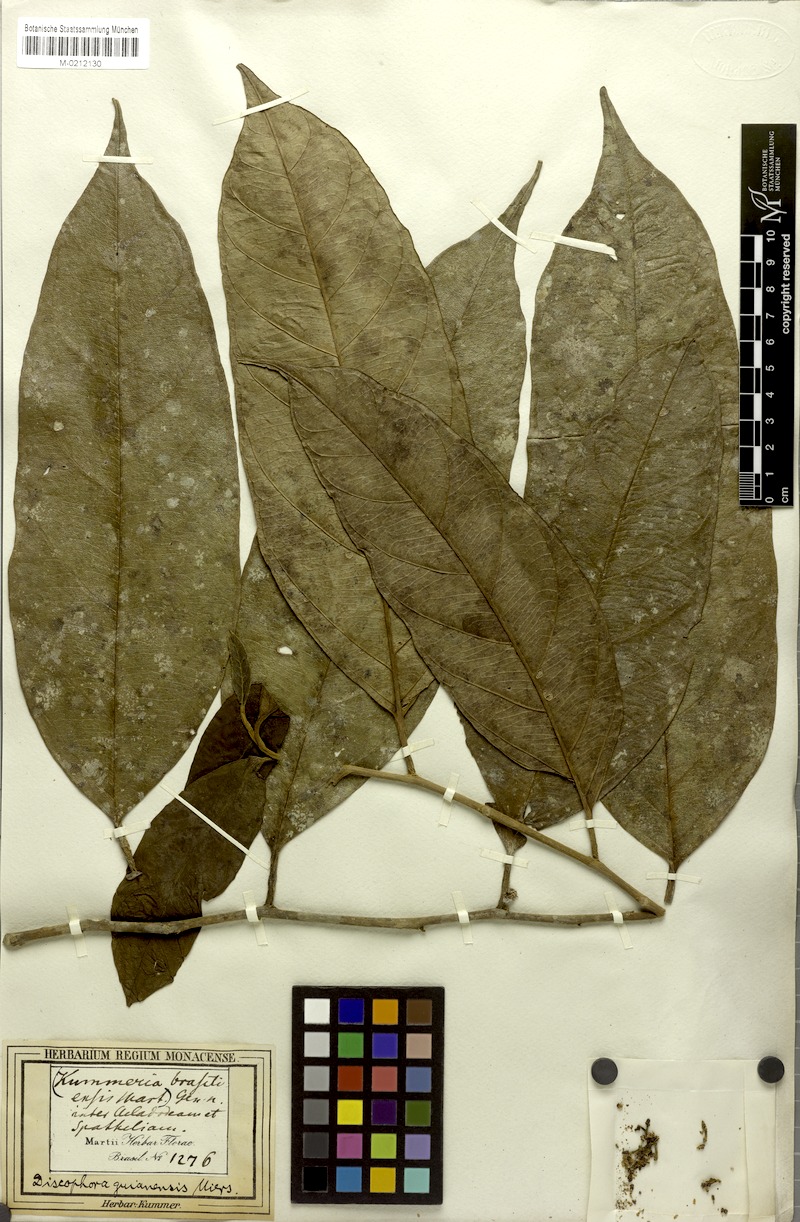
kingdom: Plantae
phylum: Tracheophyta
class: Magnoliopsida
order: Cardiopteridales
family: Stemonuraceae
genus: Discophora
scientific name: Discophora guianensis
